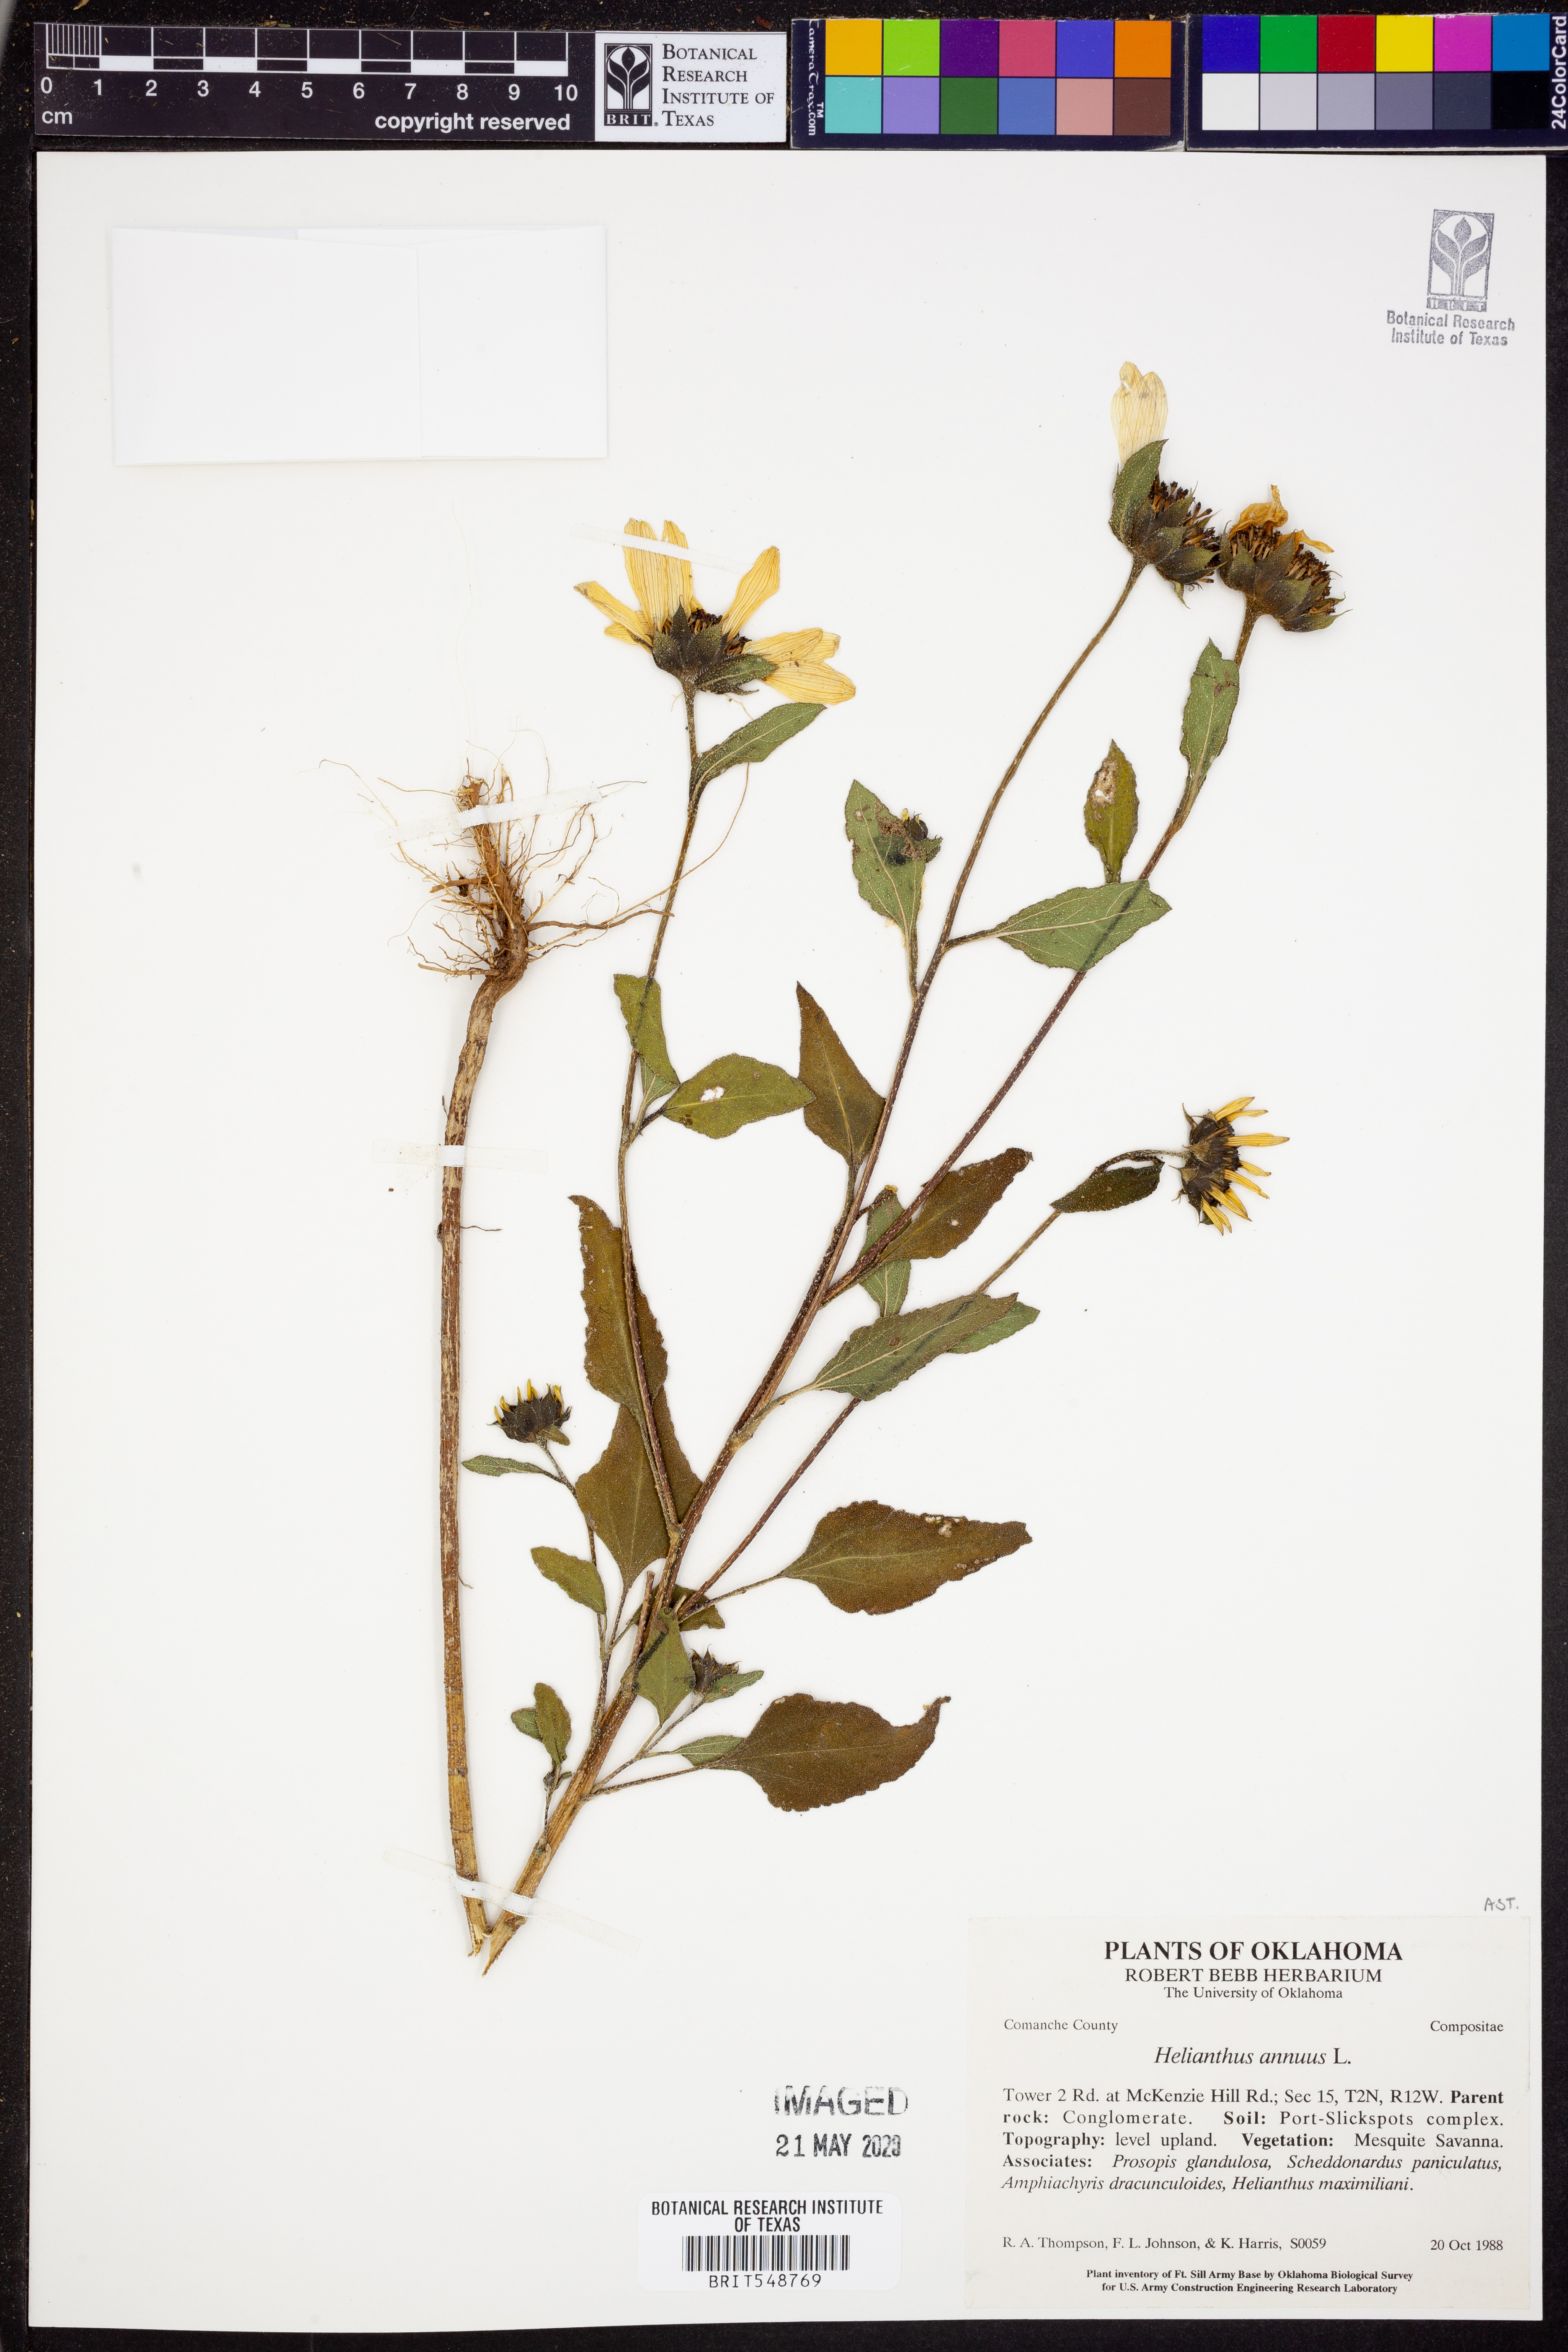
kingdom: Plantae
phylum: Tracheophyta
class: Magnoliopsida
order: Asterales
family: Asteraceae
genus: Helianthus
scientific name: Helianthus annuus
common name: Sunflower
